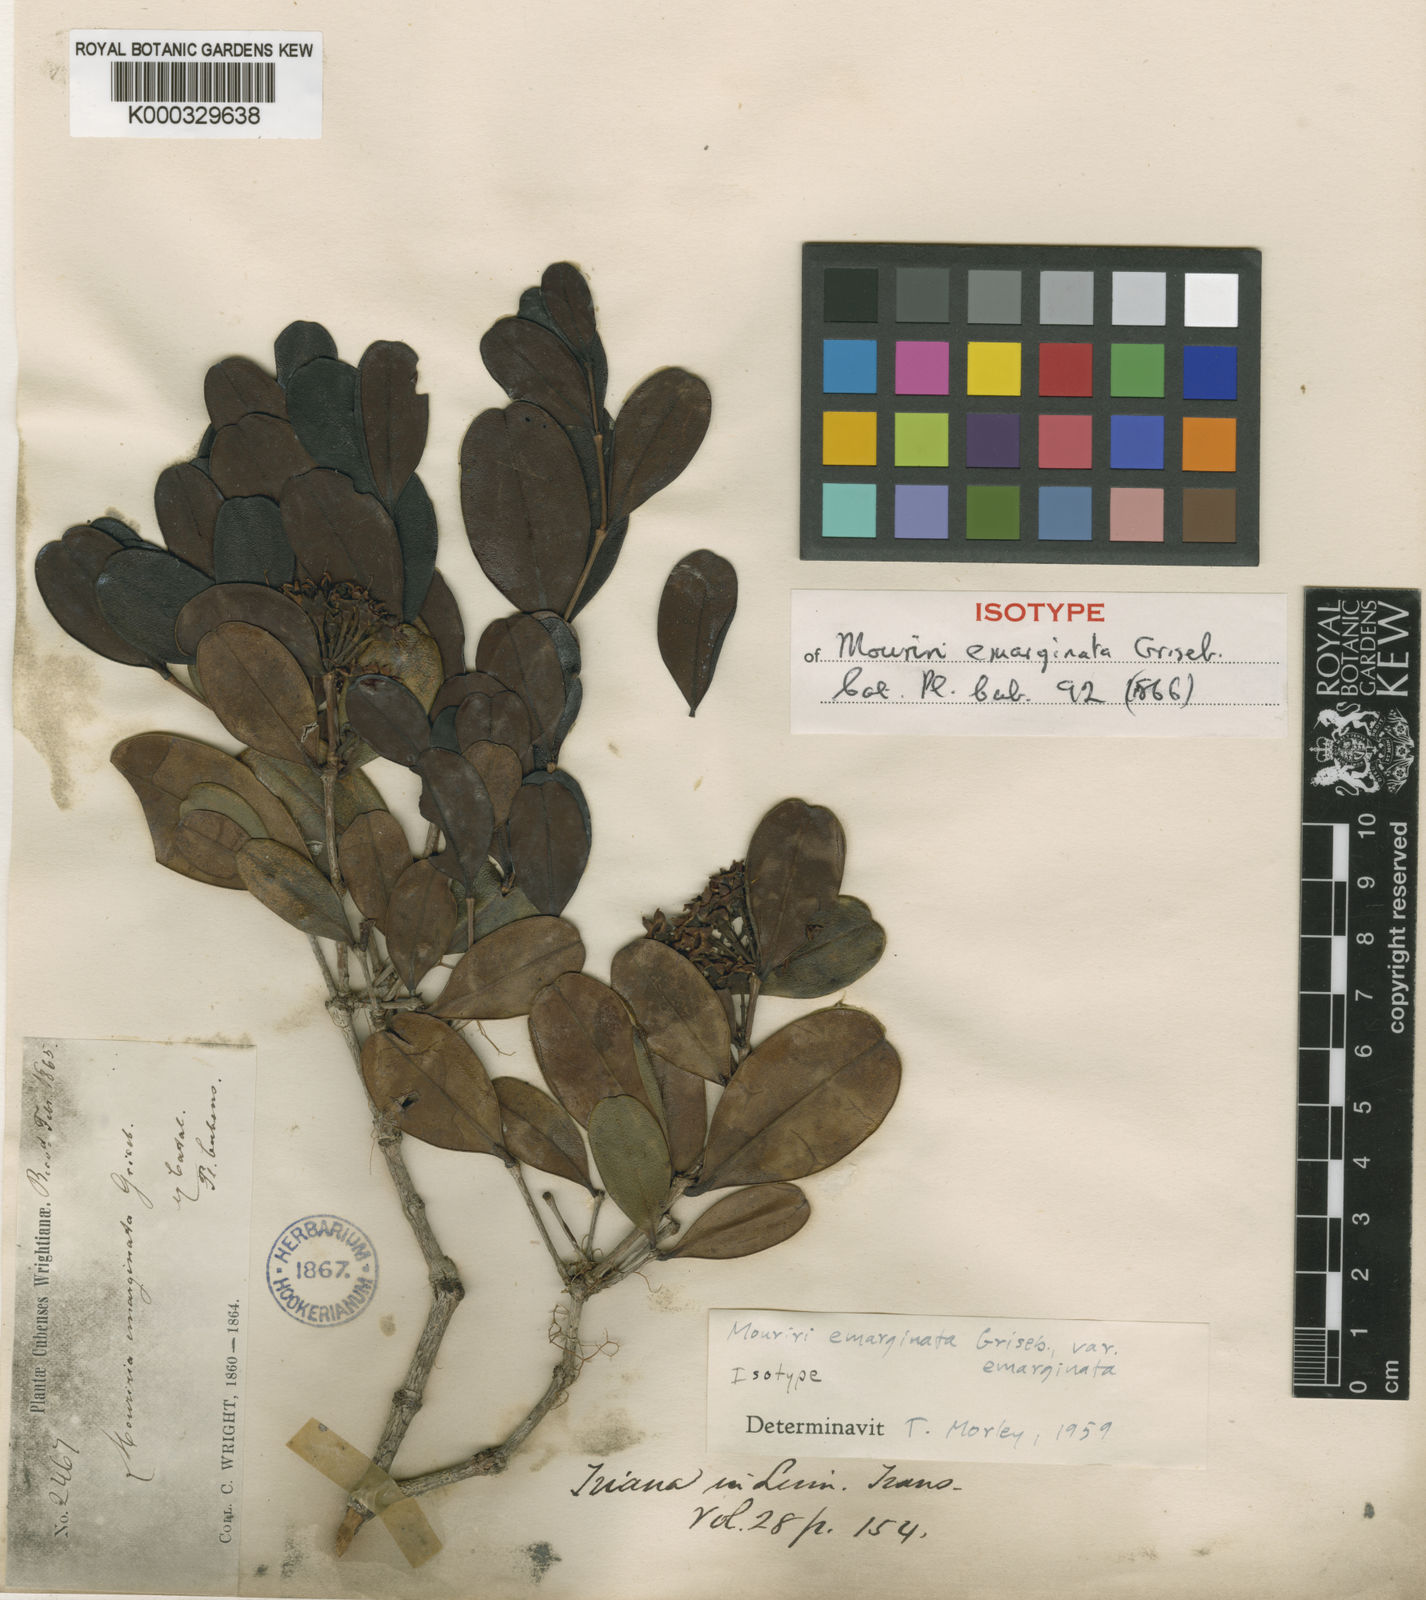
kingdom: Plantae
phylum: Tracheophyta
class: Magnoliopsida
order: Myrtales
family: Melastomataceae
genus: Mouriri
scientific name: Mouriri emarginata
